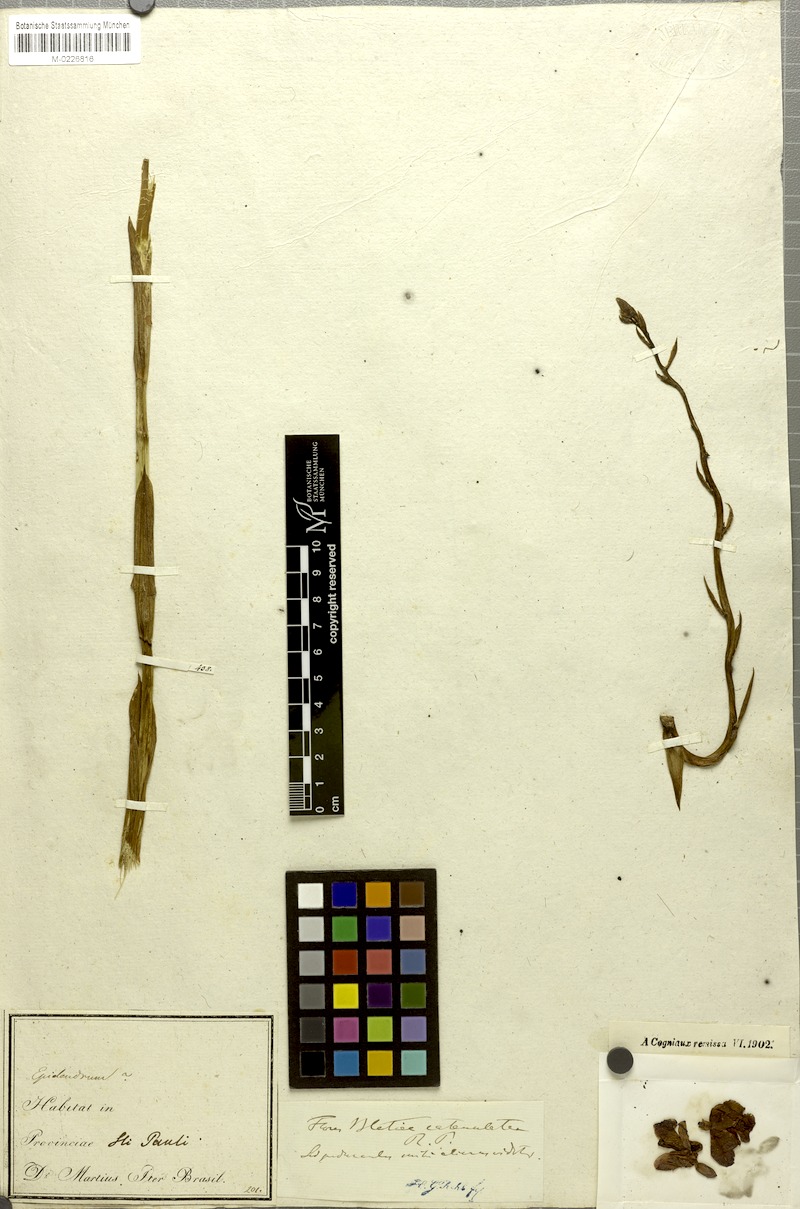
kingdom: Plantae
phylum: Tracheophyta
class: Liliopsida
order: Asparagales
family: Orchidaceae
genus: Bletia
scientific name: Bletia catenulata
